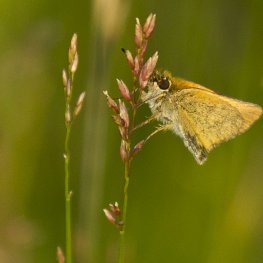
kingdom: Animalia
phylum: Arthropoda
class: Insecta
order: Lepidoptera
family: Hesperiidae
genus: Thymelicus
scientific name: Thymelicus lineola
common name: European Skipper
